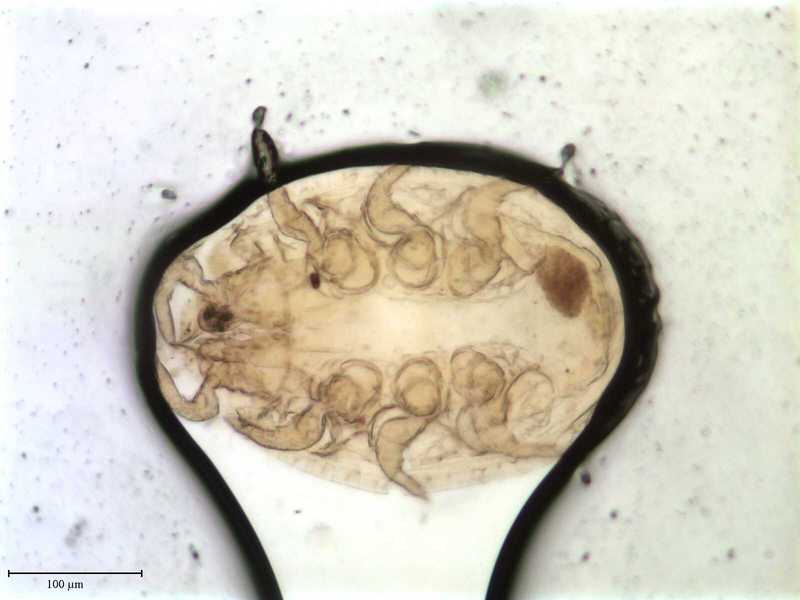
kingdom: Animalia
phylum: Arthropoda
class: Arachnida
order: Mesostigmata
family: Trematuridae
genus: Trichouropoda
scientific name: Trichouropoda
